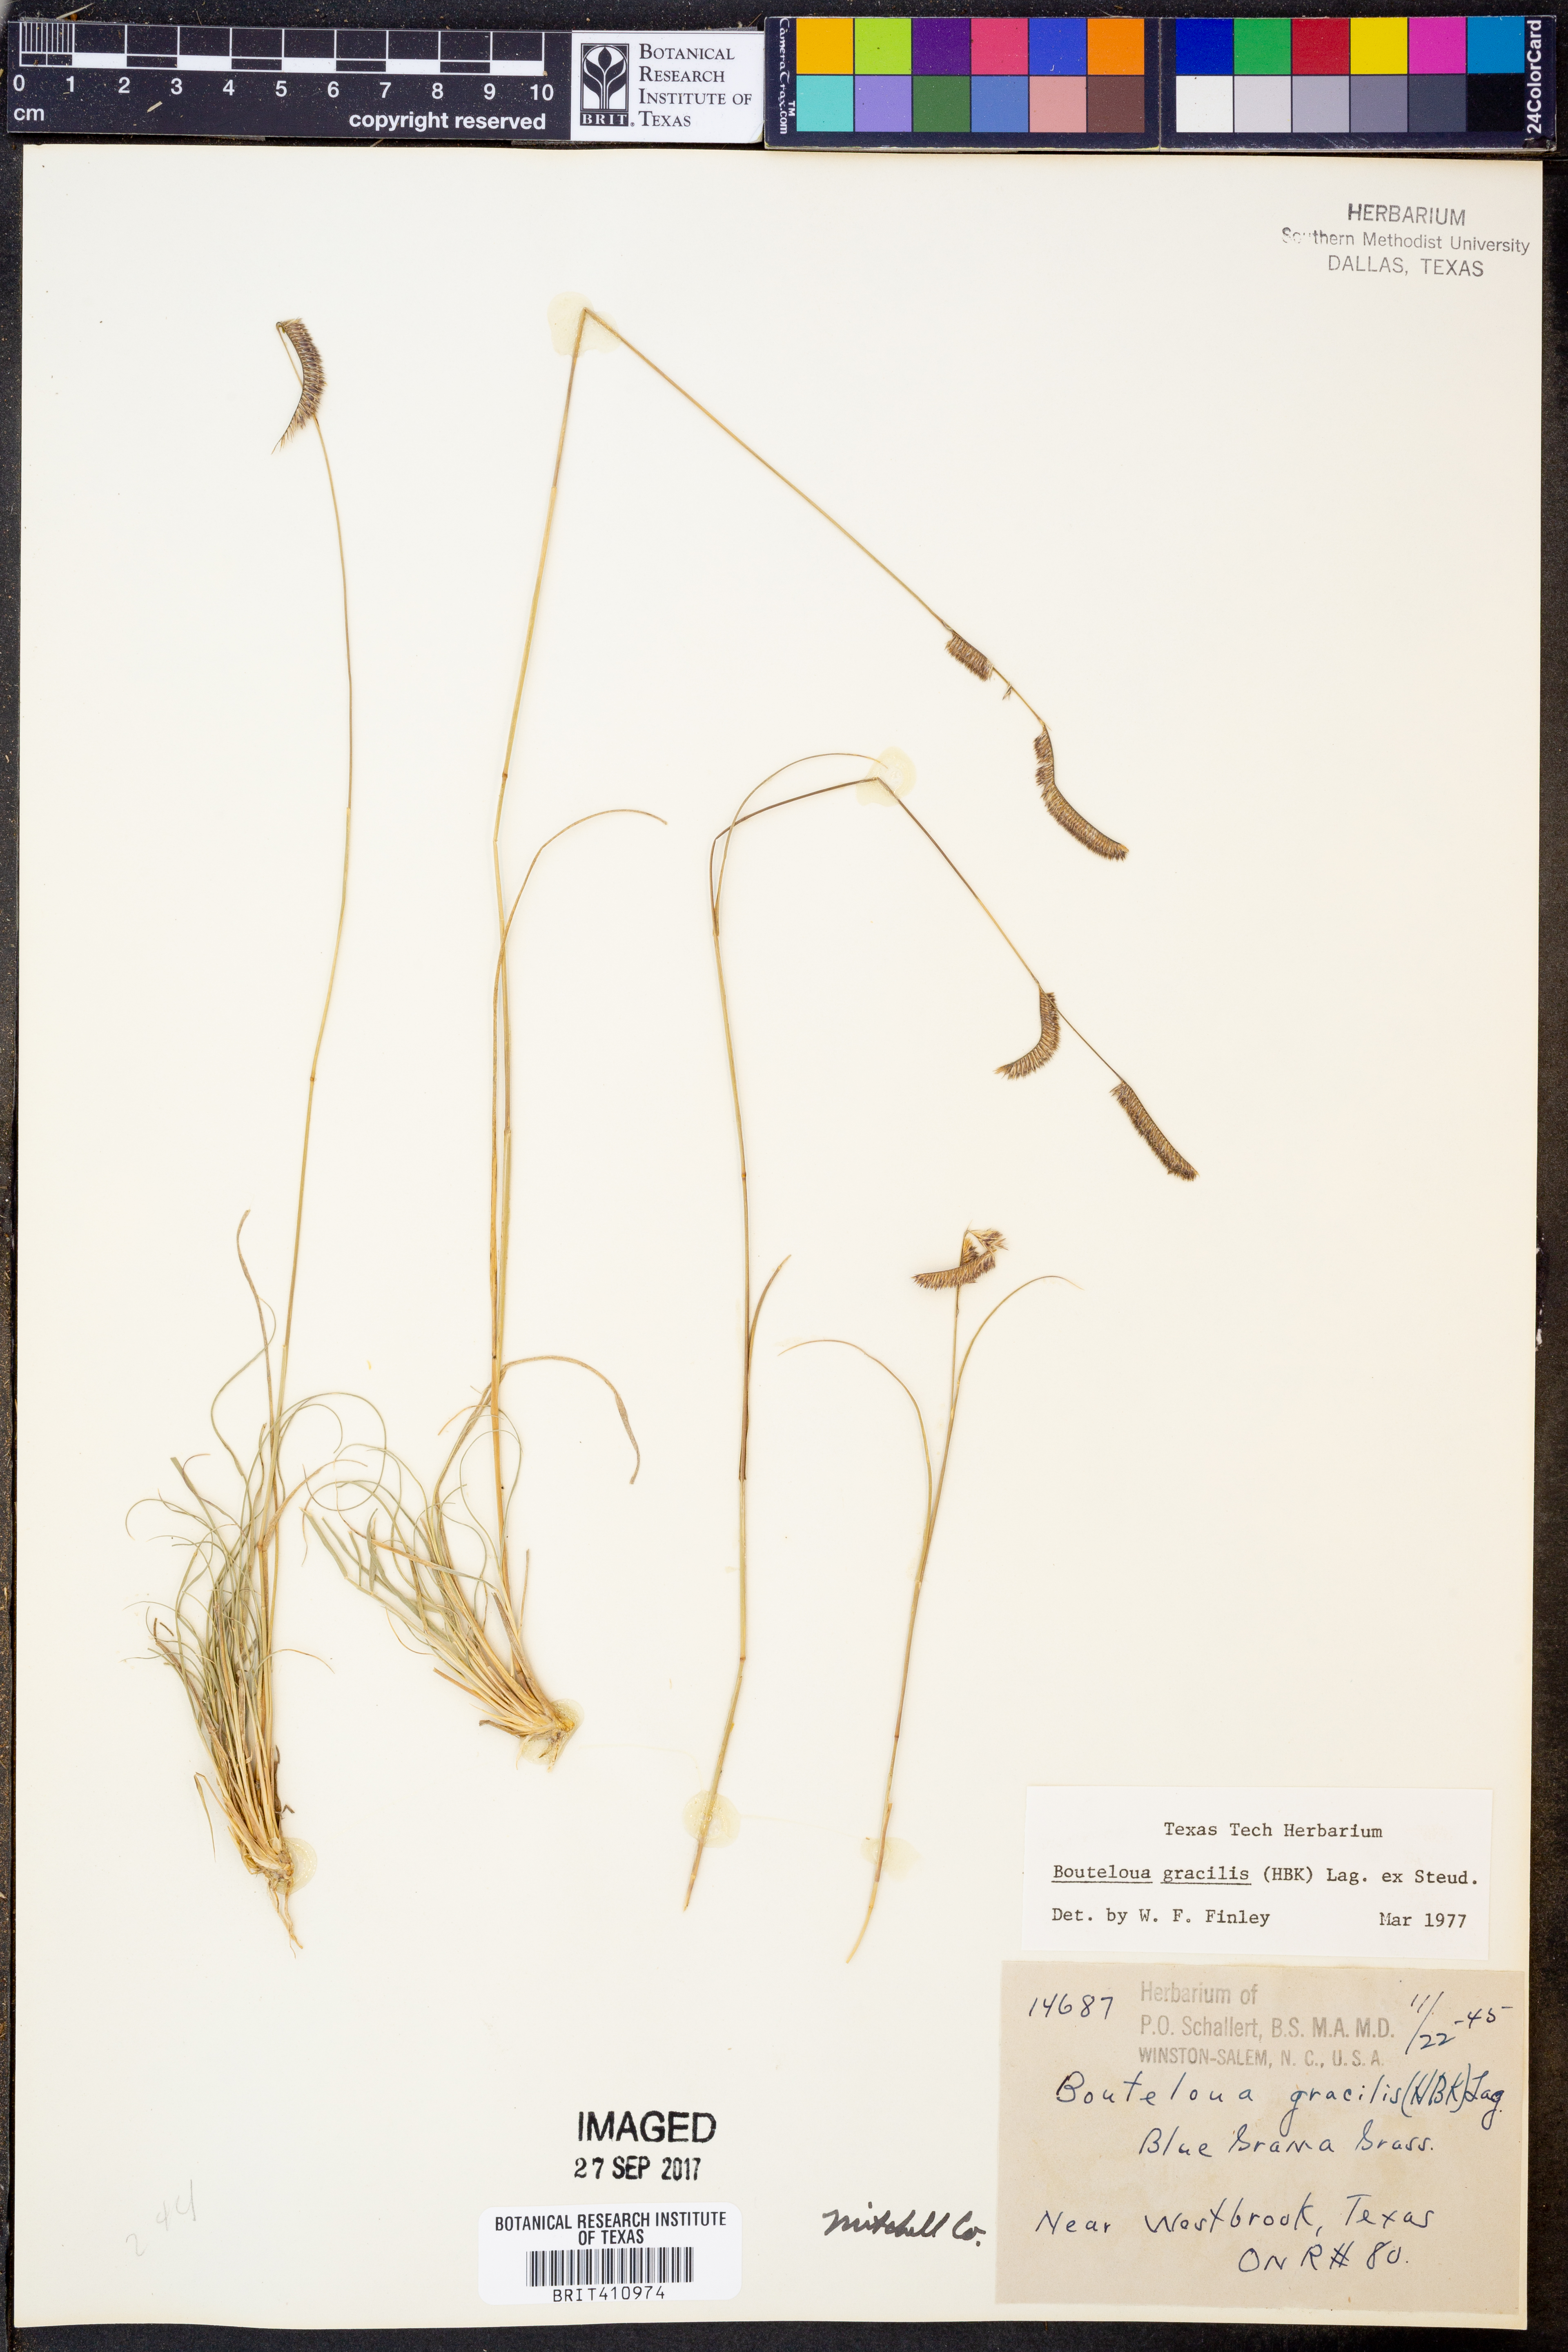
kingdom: Plantae
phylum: Tracheophyta
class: Liliopsida
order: Poales
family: Poaceae
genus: Bouteloua
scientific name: Bouteloua gracilis
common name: Blue grama
